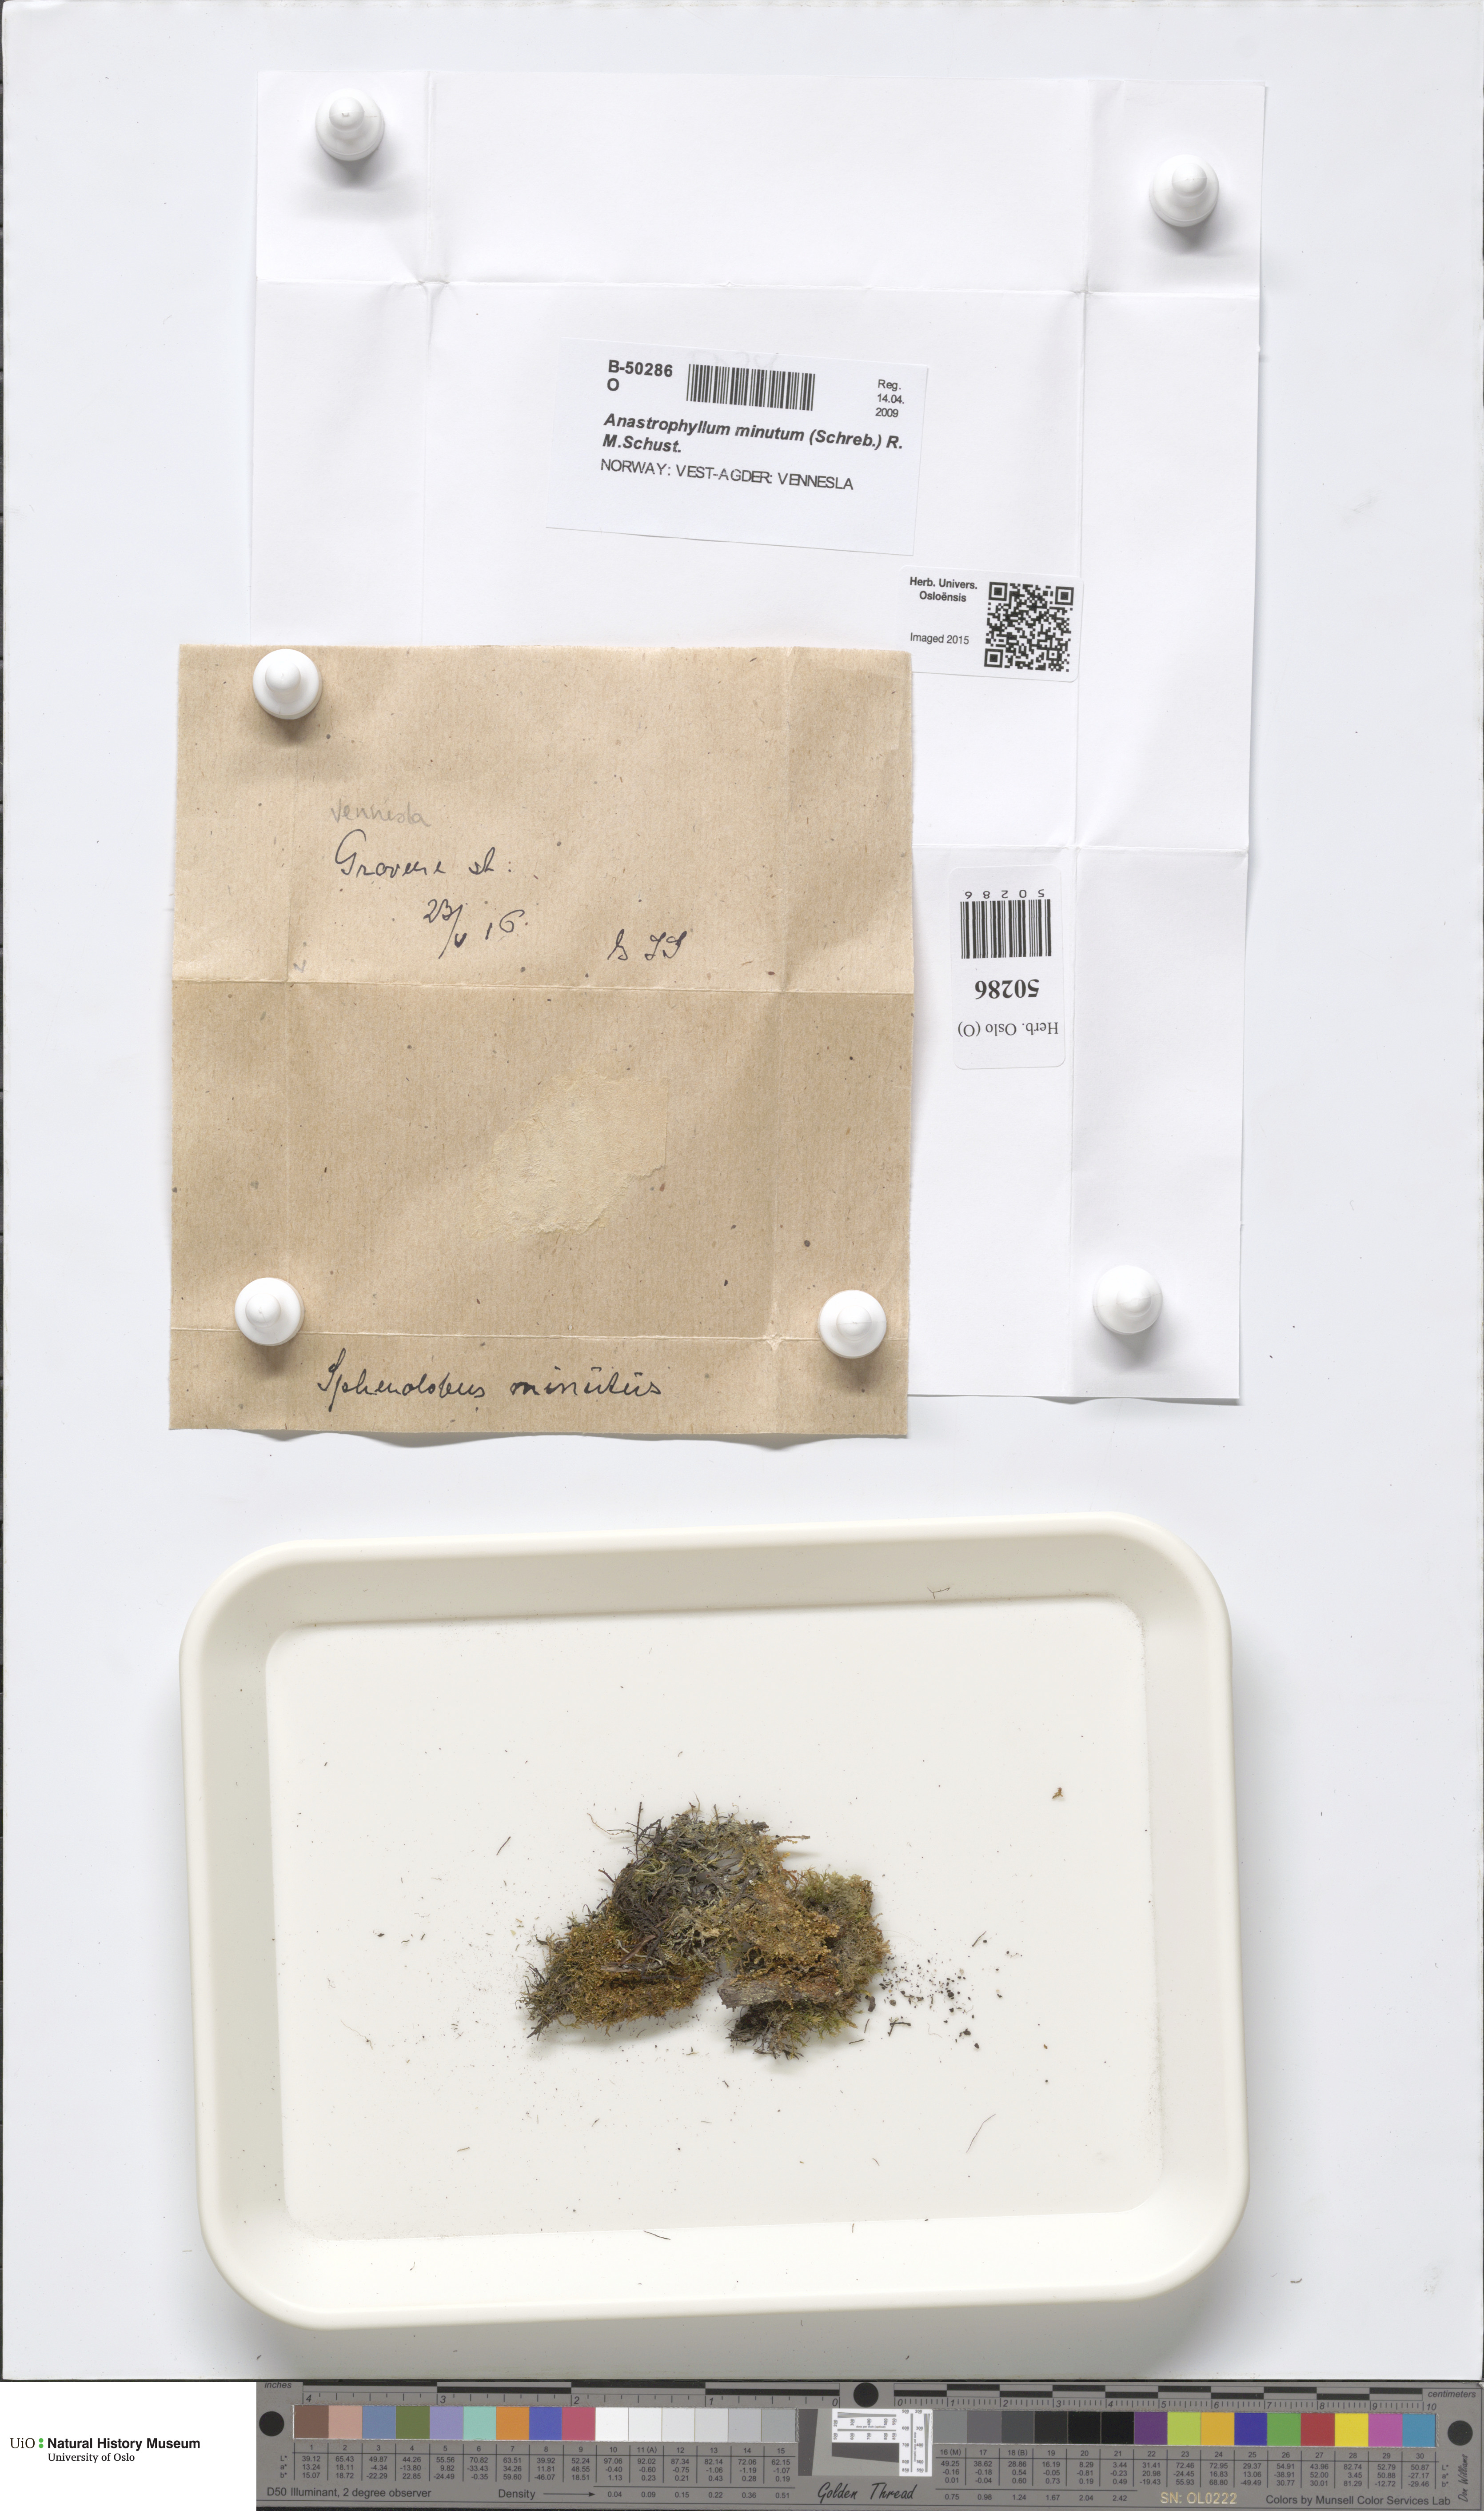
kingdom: Plantae
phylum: Marchantiophyta
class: Jungermanniopsida
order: Jungermanniales
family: Anastrophyllaceae
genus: Sphenolobus
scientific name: Sphenolobus minutus
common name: Comb notchwort
